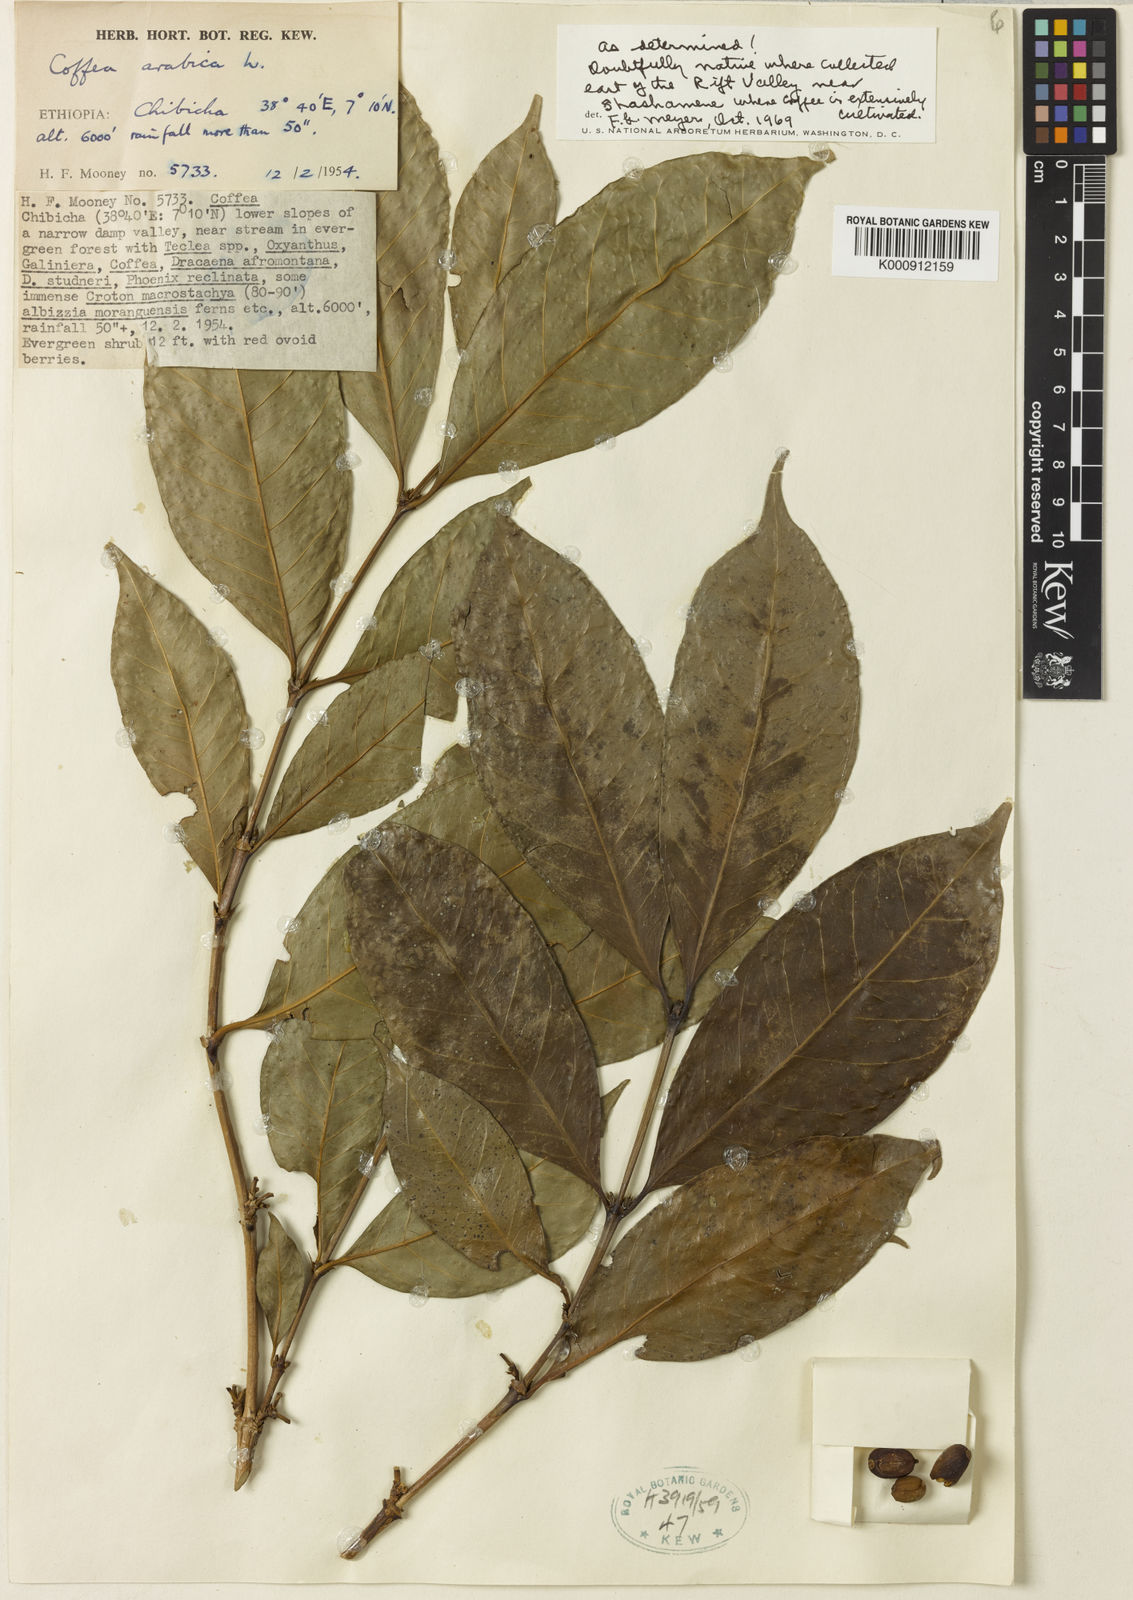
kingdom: Plantae
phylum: Tracheophyta
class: Magnoliopsida
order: Gentianales
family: Rubiaceae
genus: Coffea
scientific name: Coffea arabica
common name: Coffee
